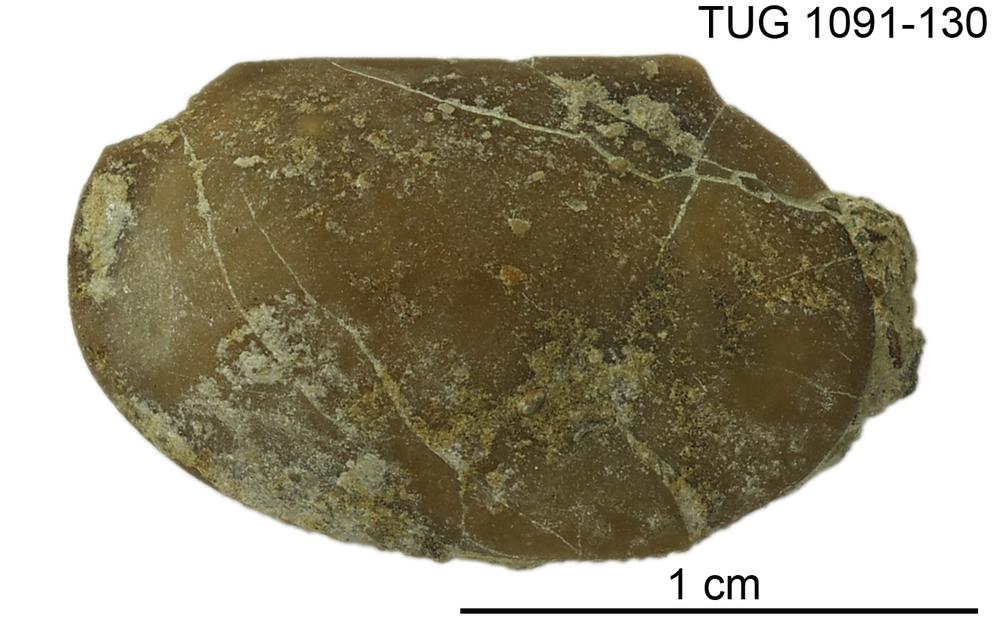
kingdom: Animalia
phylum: Arthropoda
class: Ostracoda
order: Platycopida
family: Leperditiidae
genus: Herrmannina
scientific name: Herrmannina
